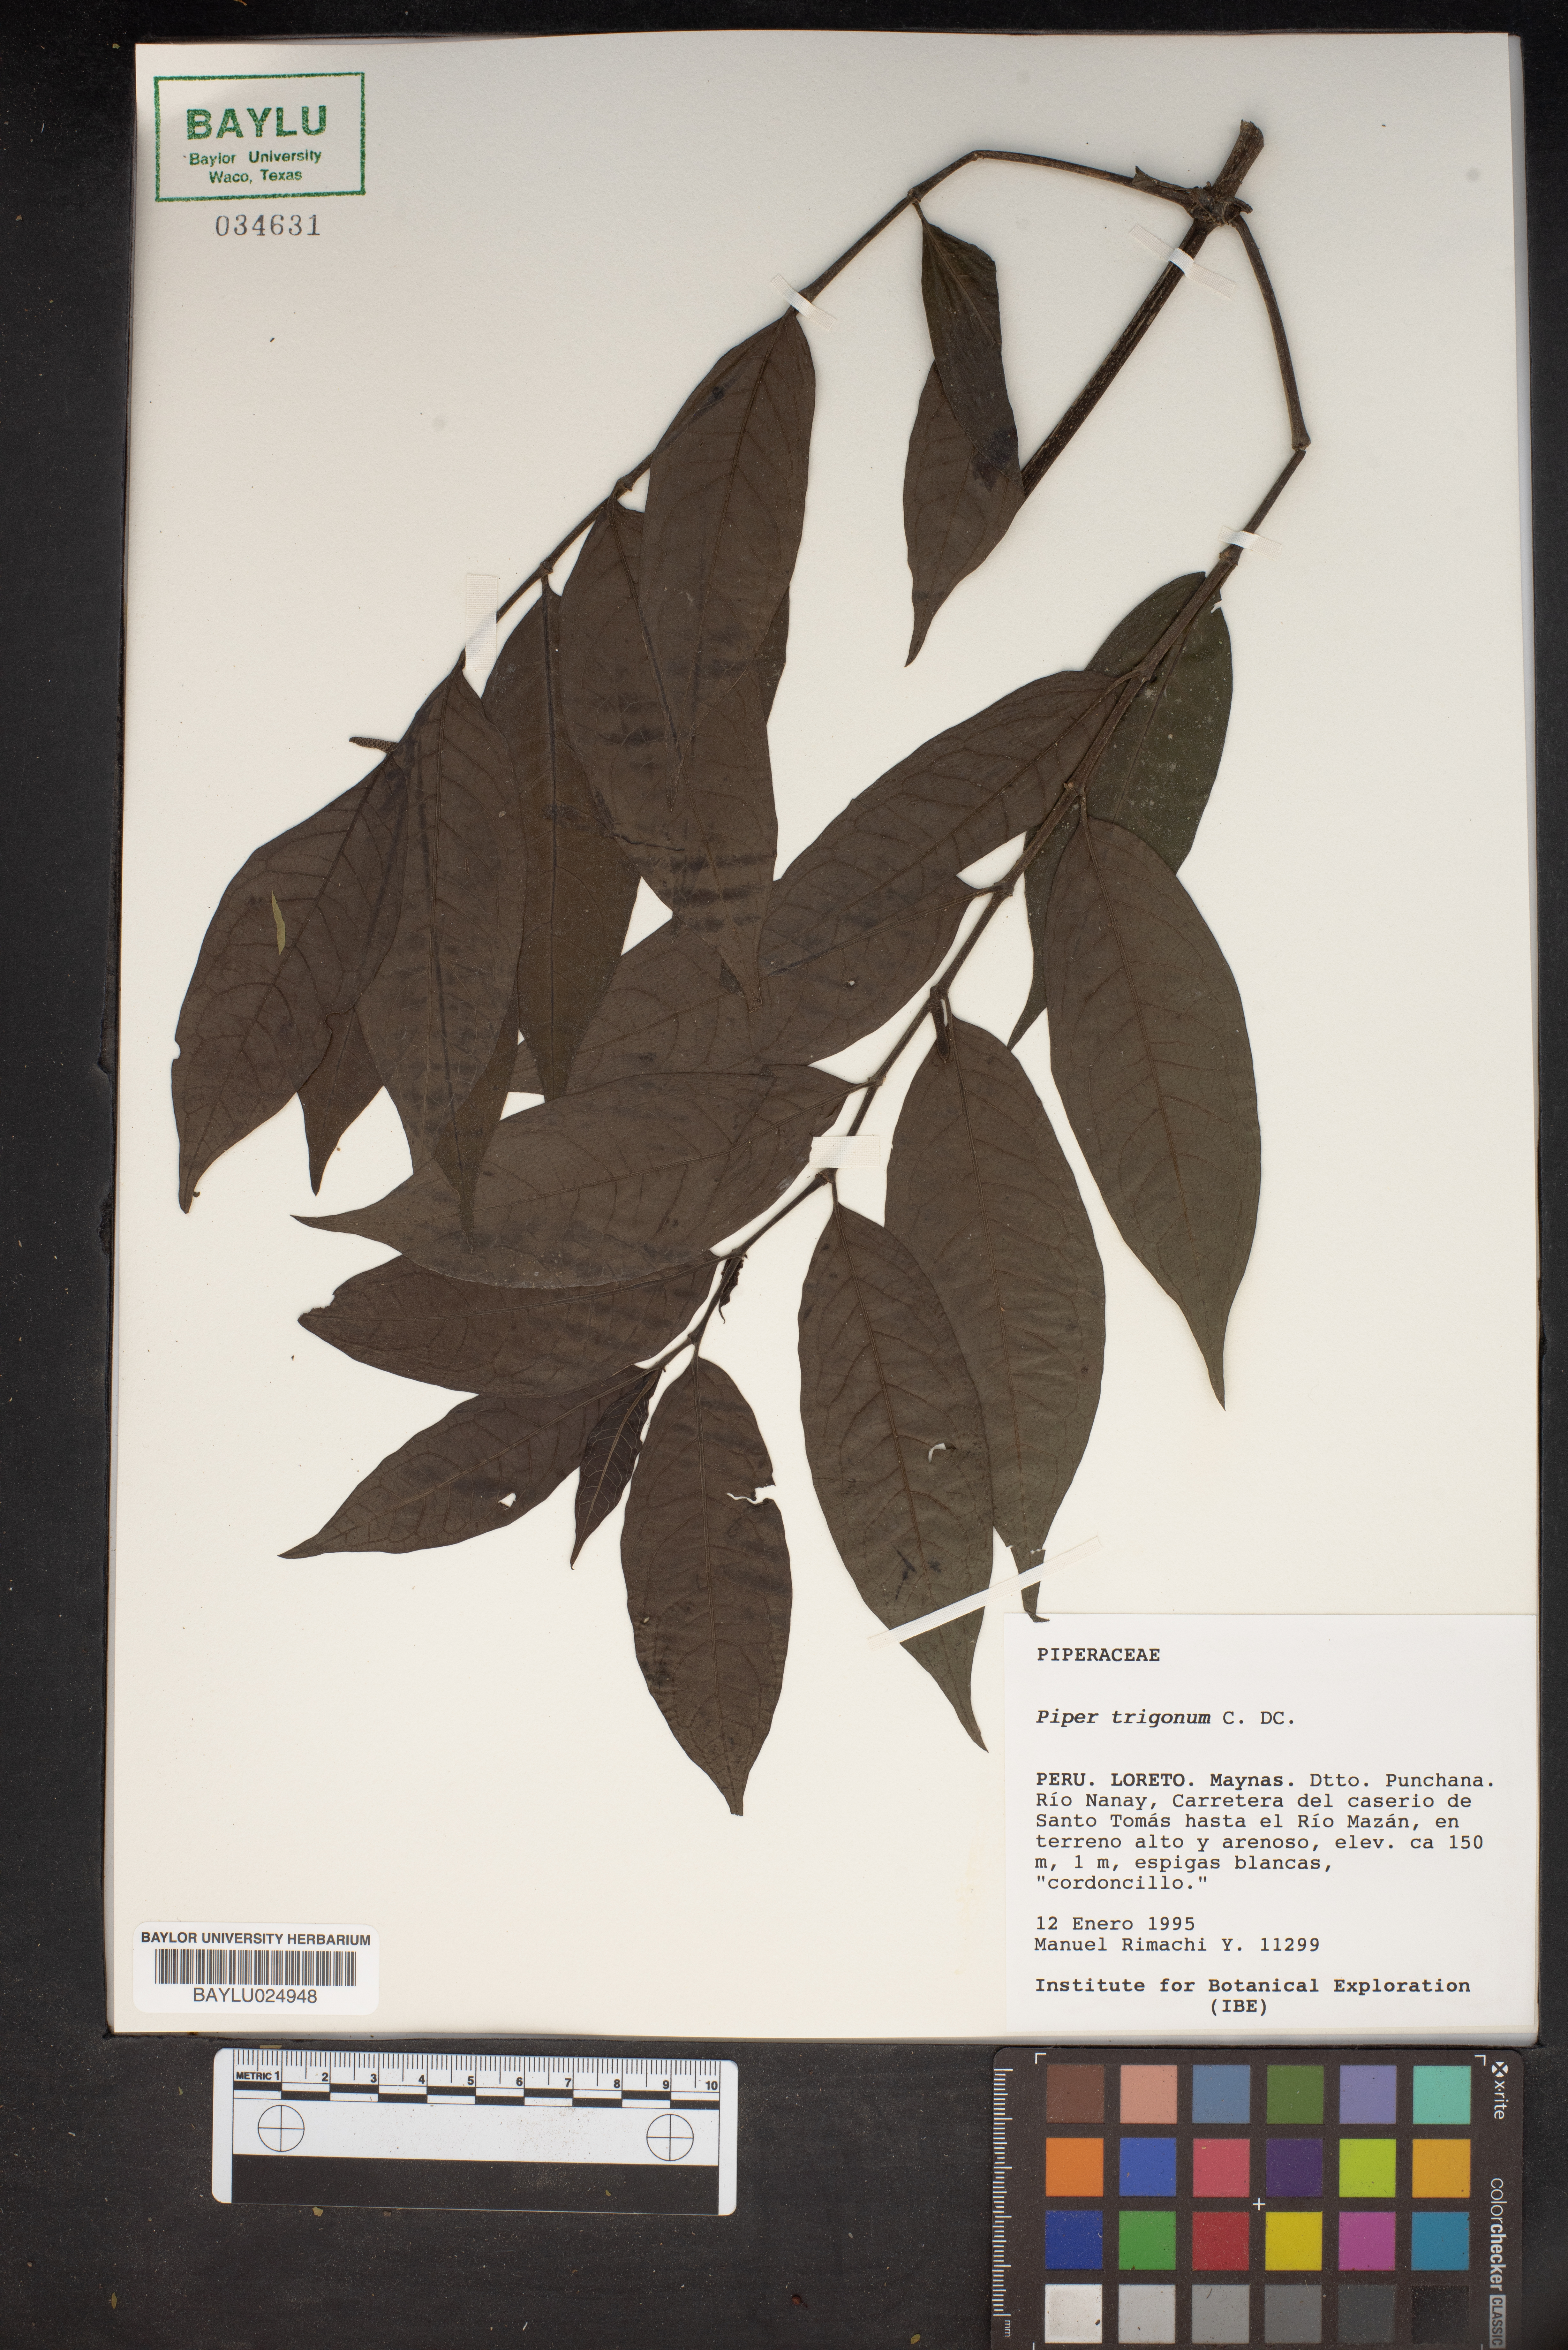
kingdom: Plantae
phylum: Tracheophyta
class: Magnoliopsida
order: Piperales
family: Piperaceae
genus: Piper
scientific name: Piper trigonum
